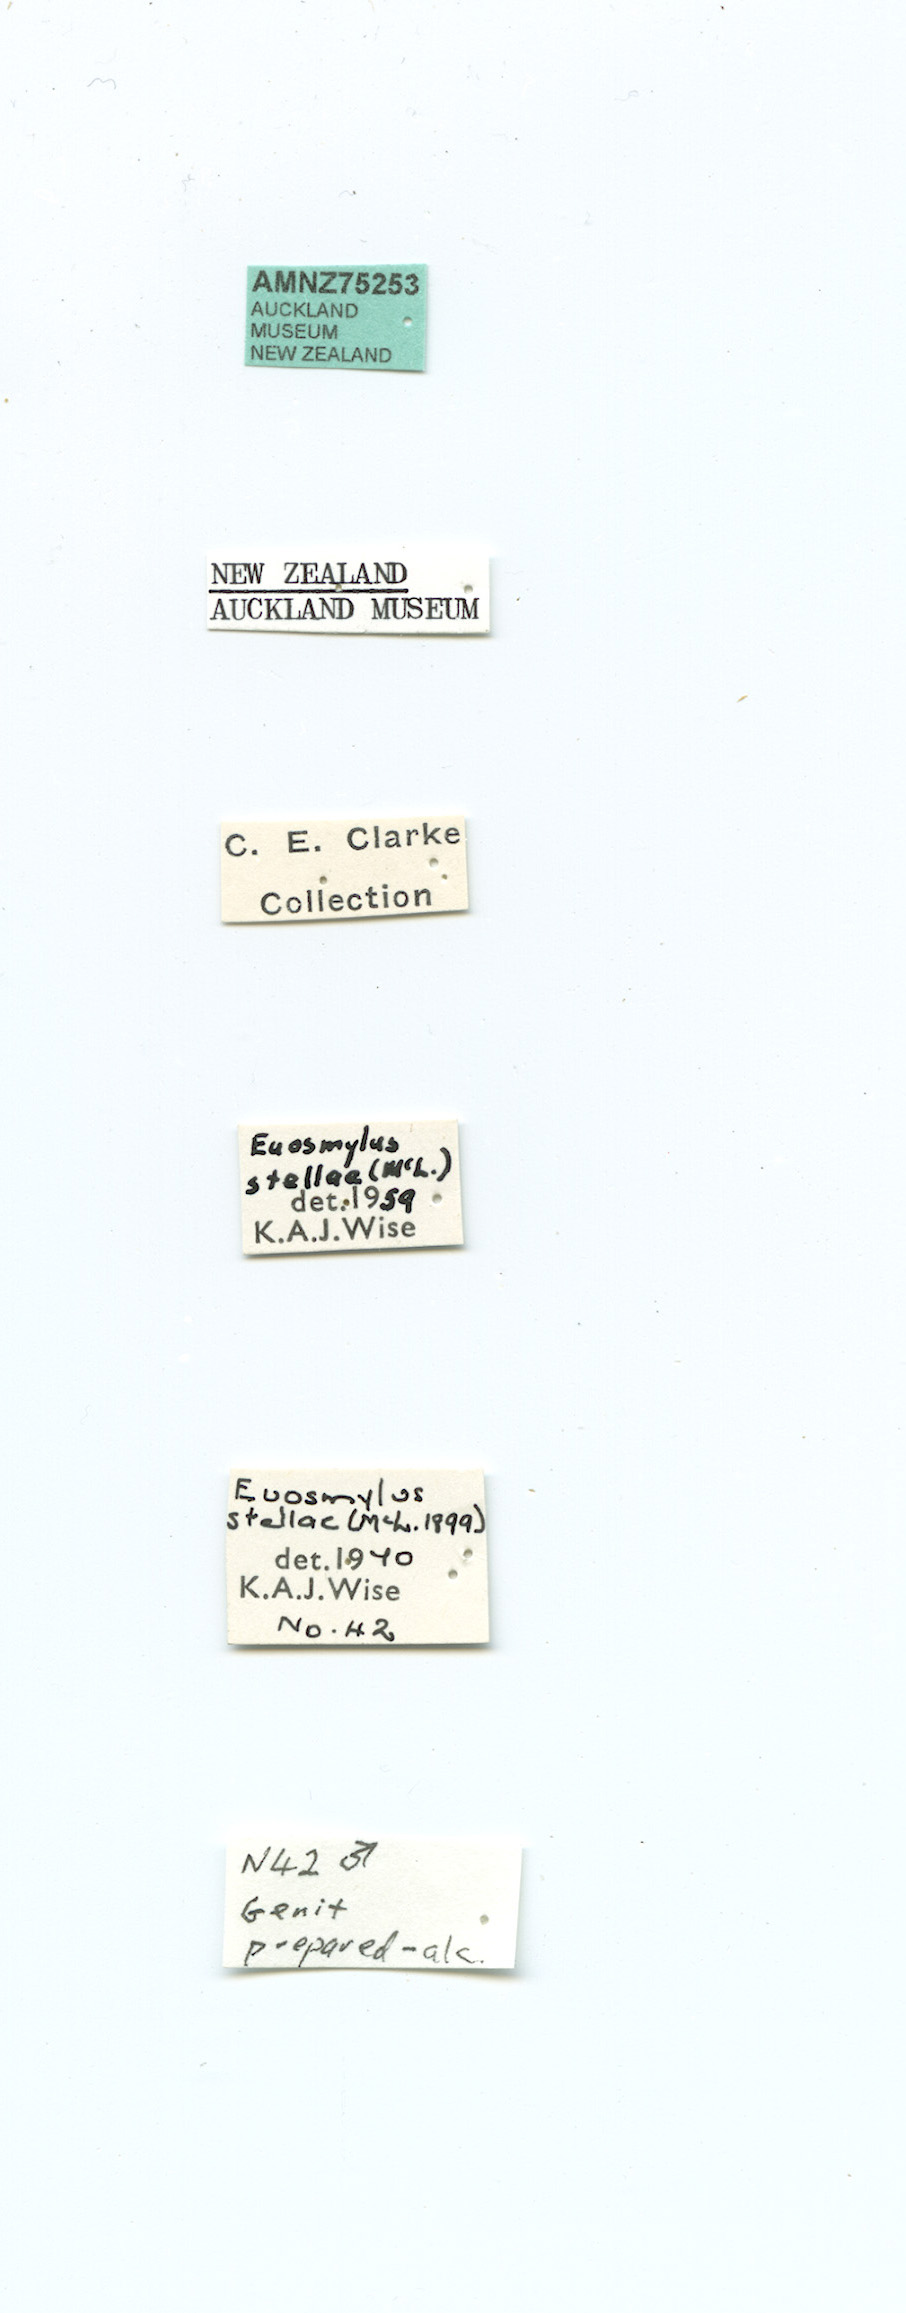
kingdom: Animalia
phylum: Arthropoda
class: Insecta
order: Neuroptera
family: Osmylidae
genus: Euosmylus
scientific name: Euosmylus stellae
